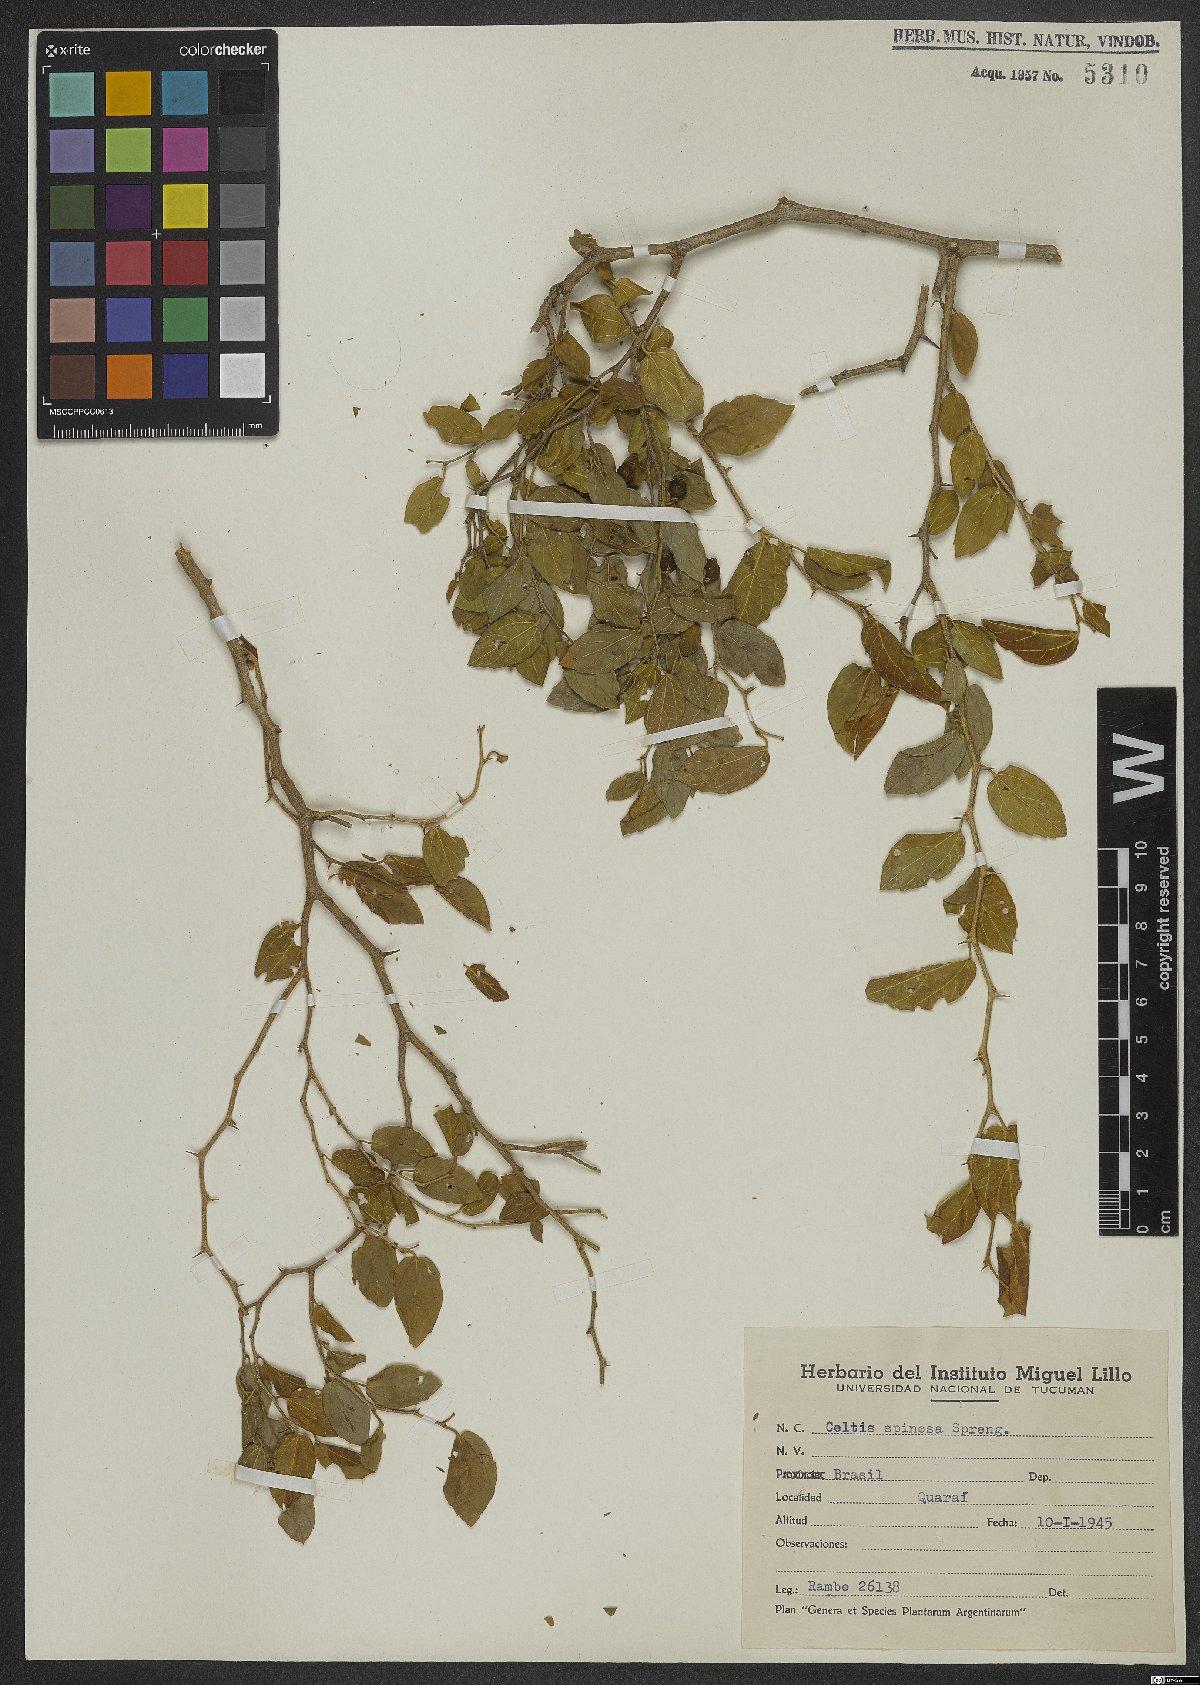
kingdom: Plantae
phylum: Tracheophyta
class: Magnoliopsida
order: Rosales
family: Cannabaceae
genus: Celtis
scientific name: Celtis spinosa
